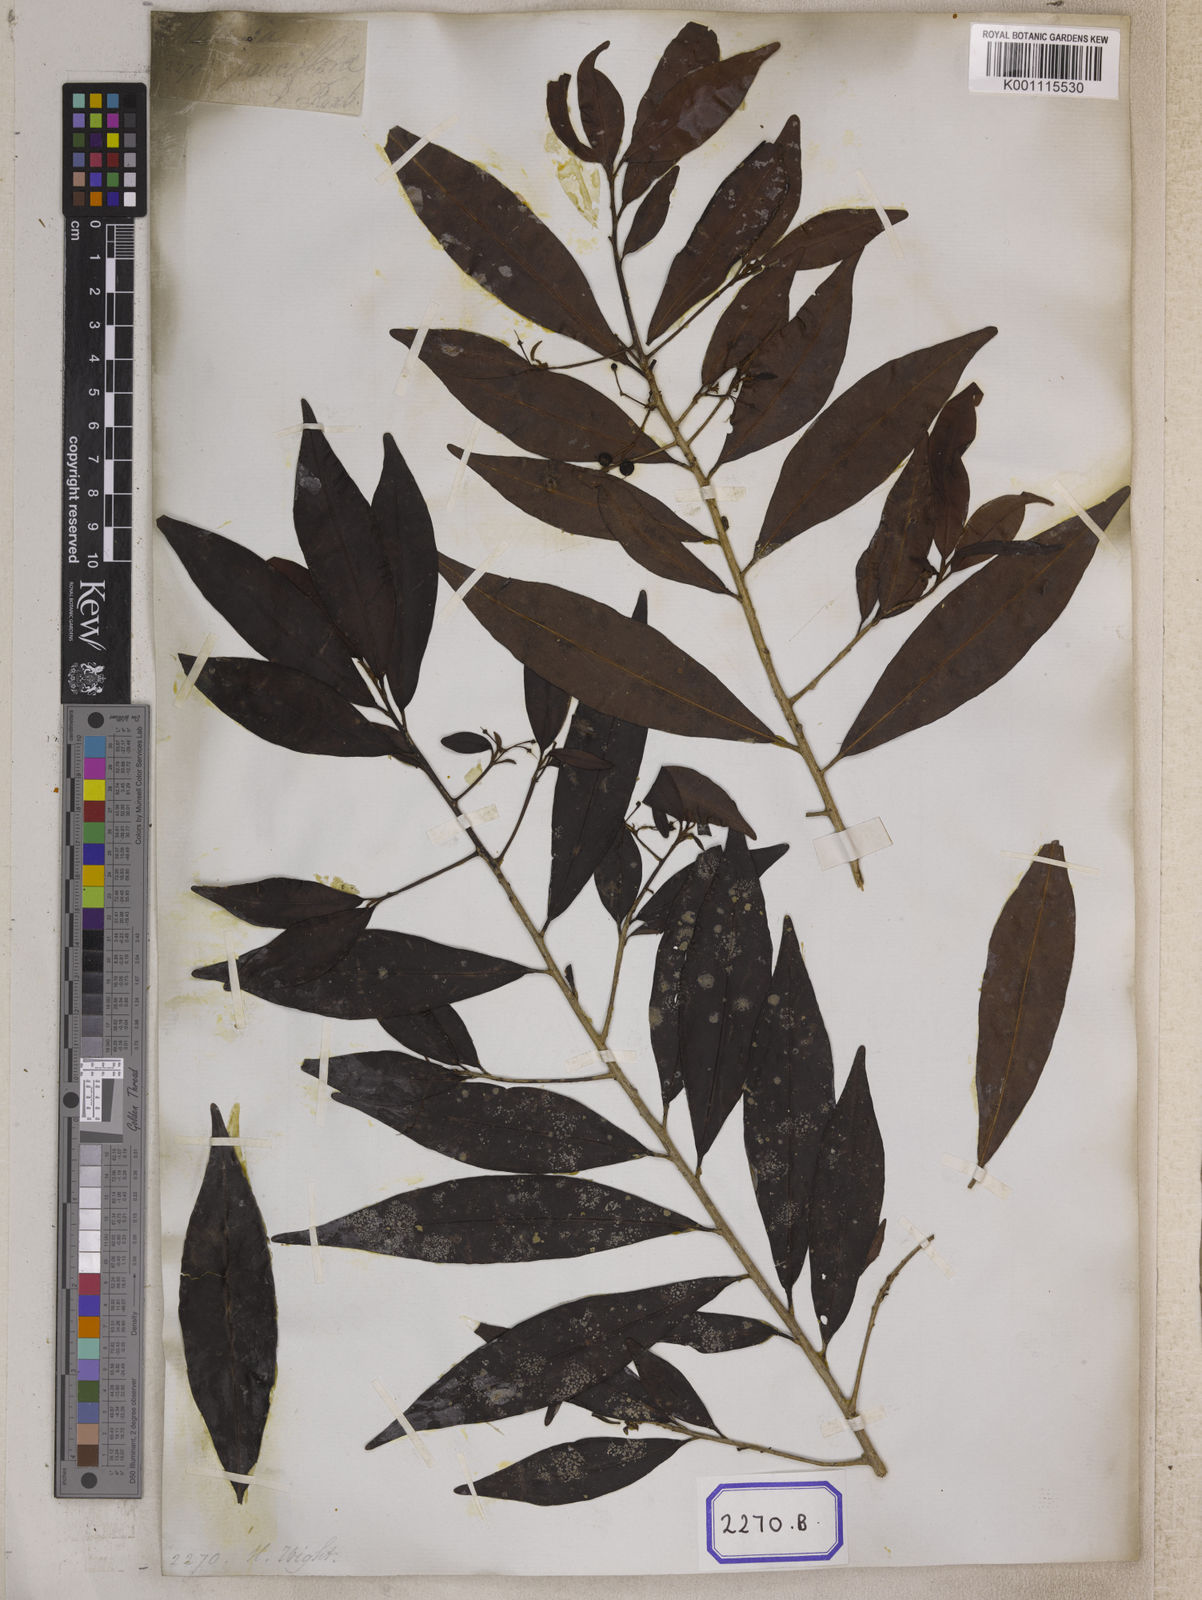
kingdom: Plantae
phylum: Tracheophyta
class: Magnoliopsida
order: Ericales
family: Primulaceae
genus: Ardisia
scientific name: Ardisia pauciflora
